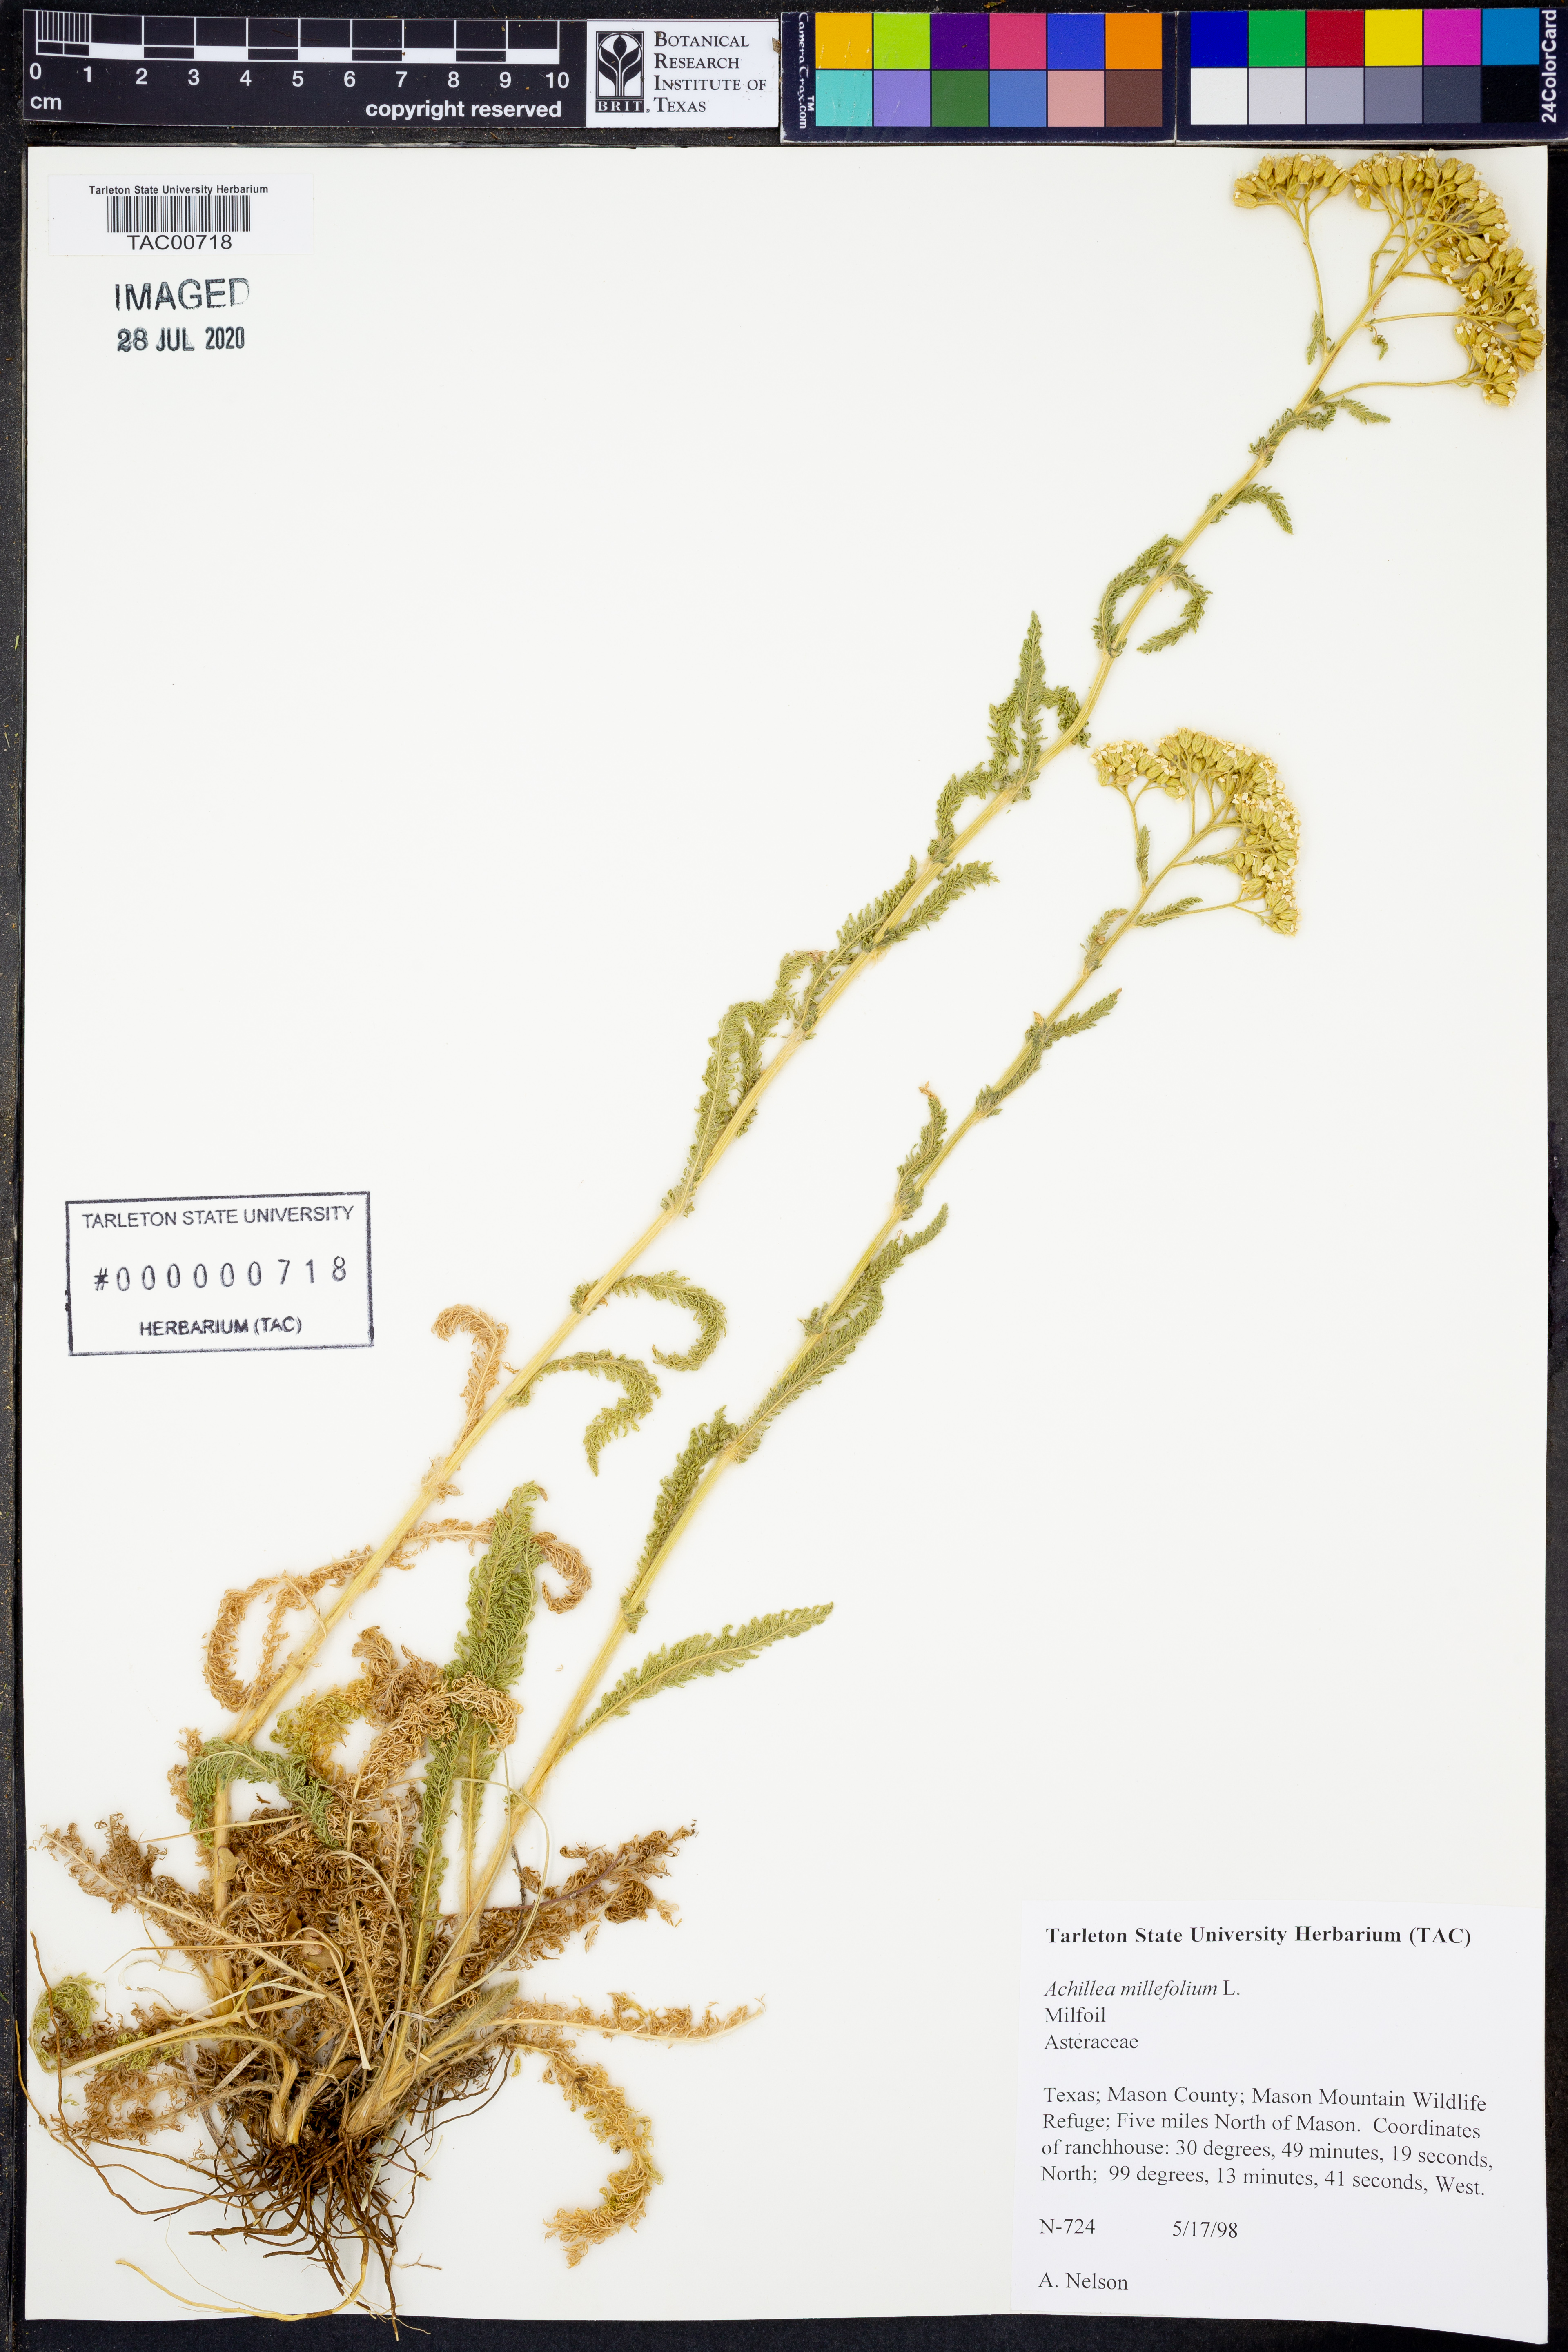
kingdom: Plantae
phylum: Tracheophyta
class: Magnoliopsida
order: Asterales
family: Asteraceae
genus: Achillea
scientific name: Achillea millefolium
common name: Yarrow
